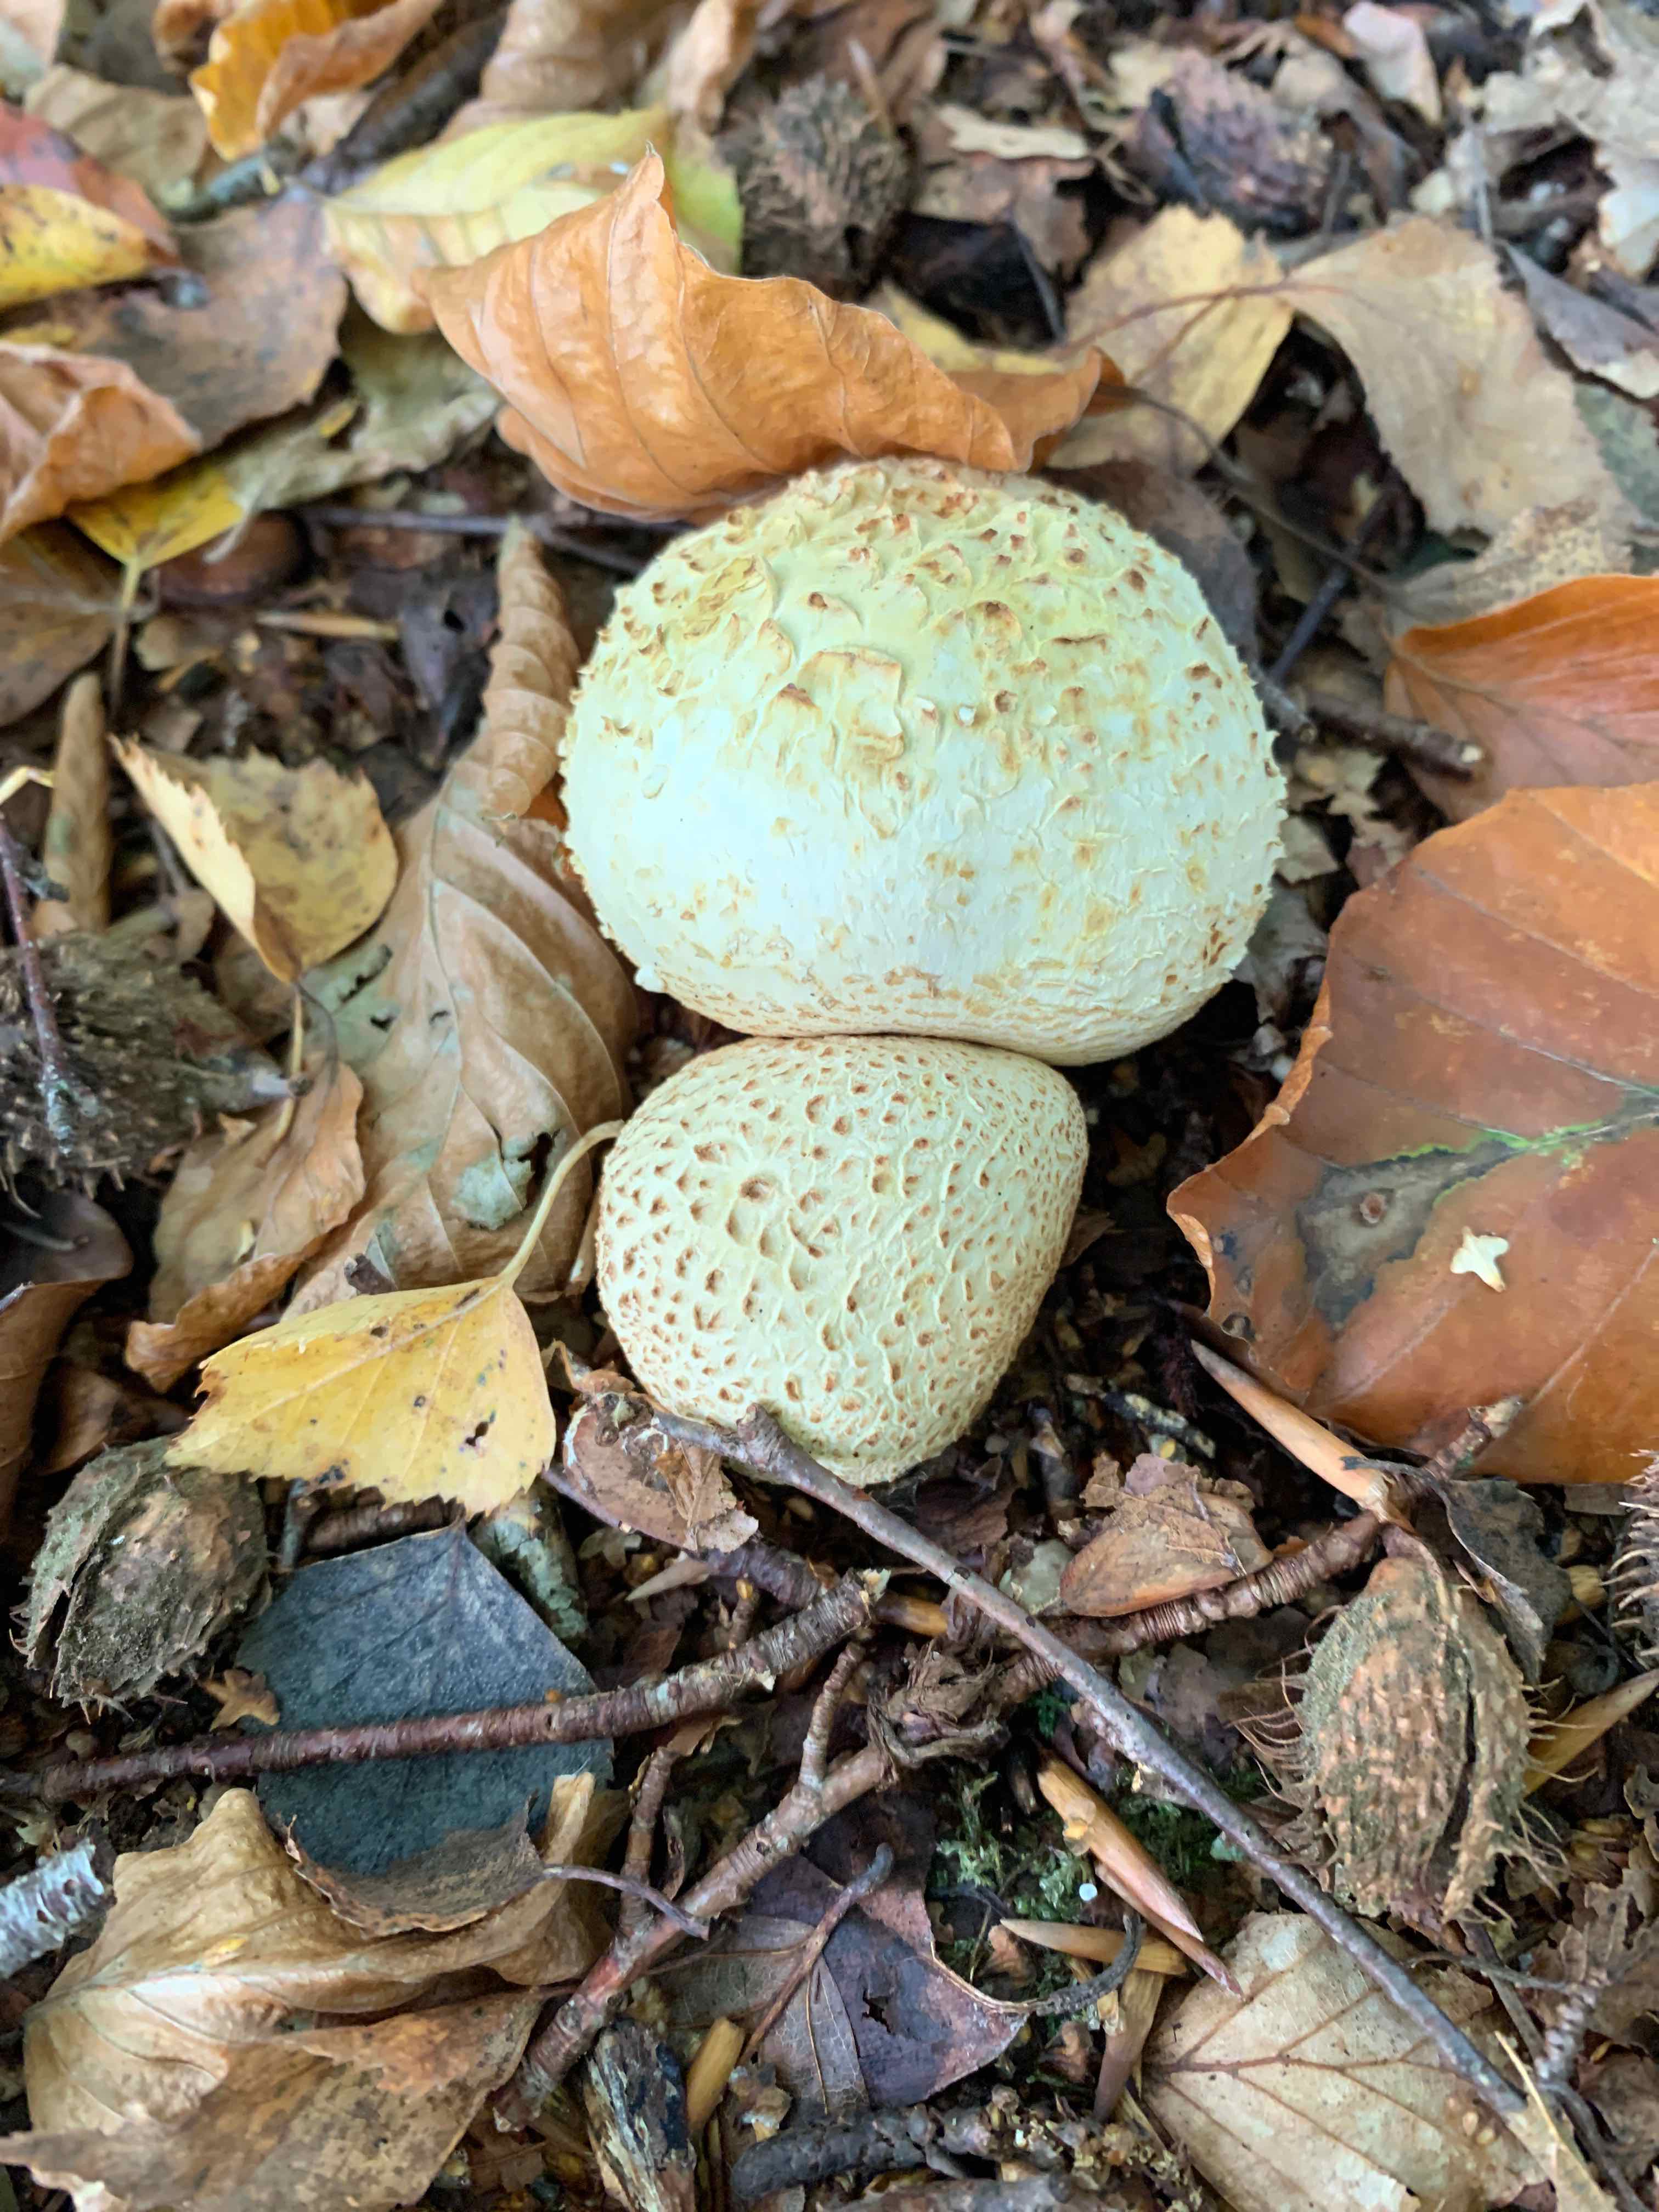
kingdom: Fungi
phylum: Basidiomycota
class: Agaricomycetes
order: Boletales
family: Sclerodermataceae
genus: Scleroderma
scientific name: Scleroderma citrinum
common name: almindelig bruskbold
